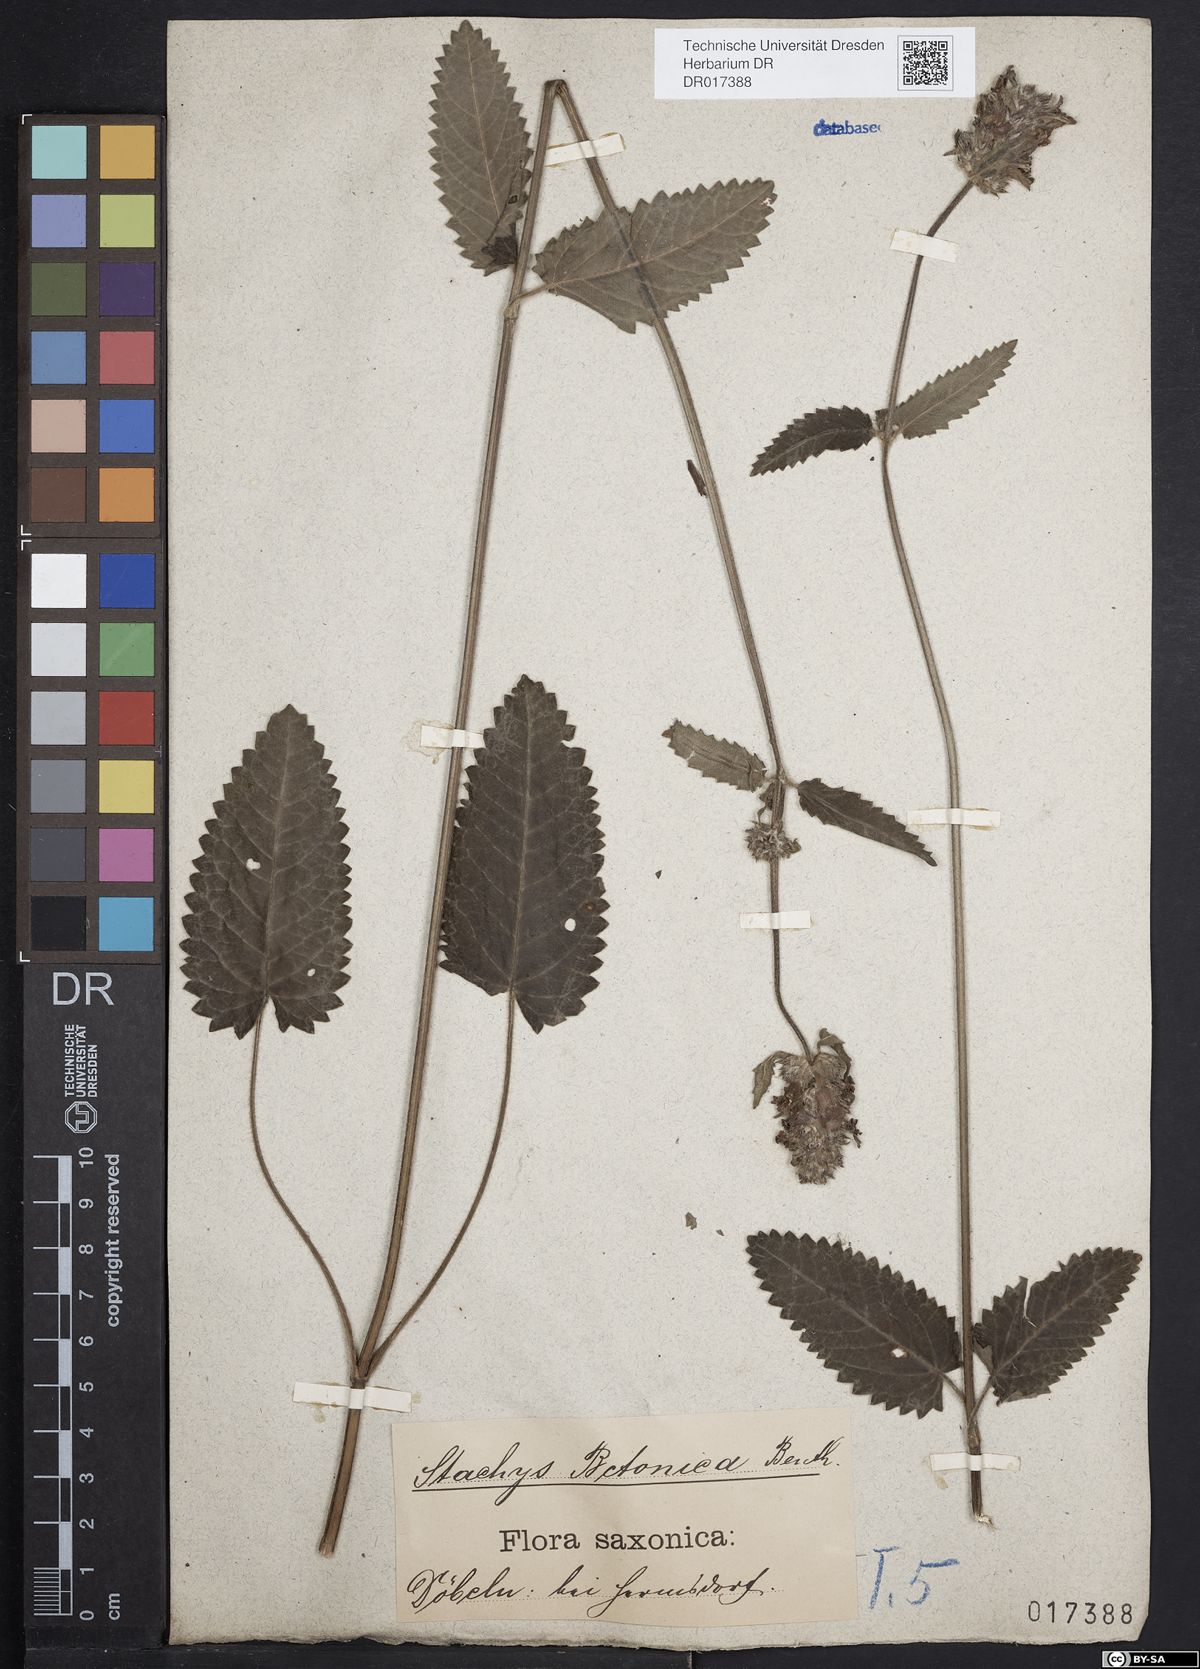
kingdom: Plantae
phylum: Tracheophyta
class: Magnoliopsida
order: Lamiales
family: Lamiaceae
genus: Betonica
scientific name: Betonica officinalis
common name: Bishop's-wort
